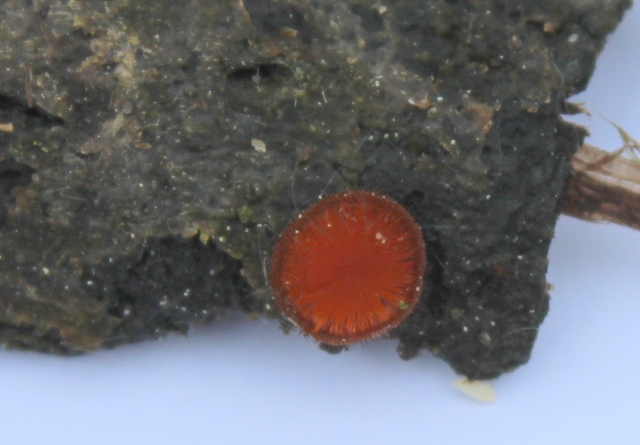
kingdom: Fungi
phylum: Ascomycota
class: Pezizomycetes
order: Pezizales
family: Pyronemataceae
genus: Scutellinia
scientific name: Scutellinia crinita
